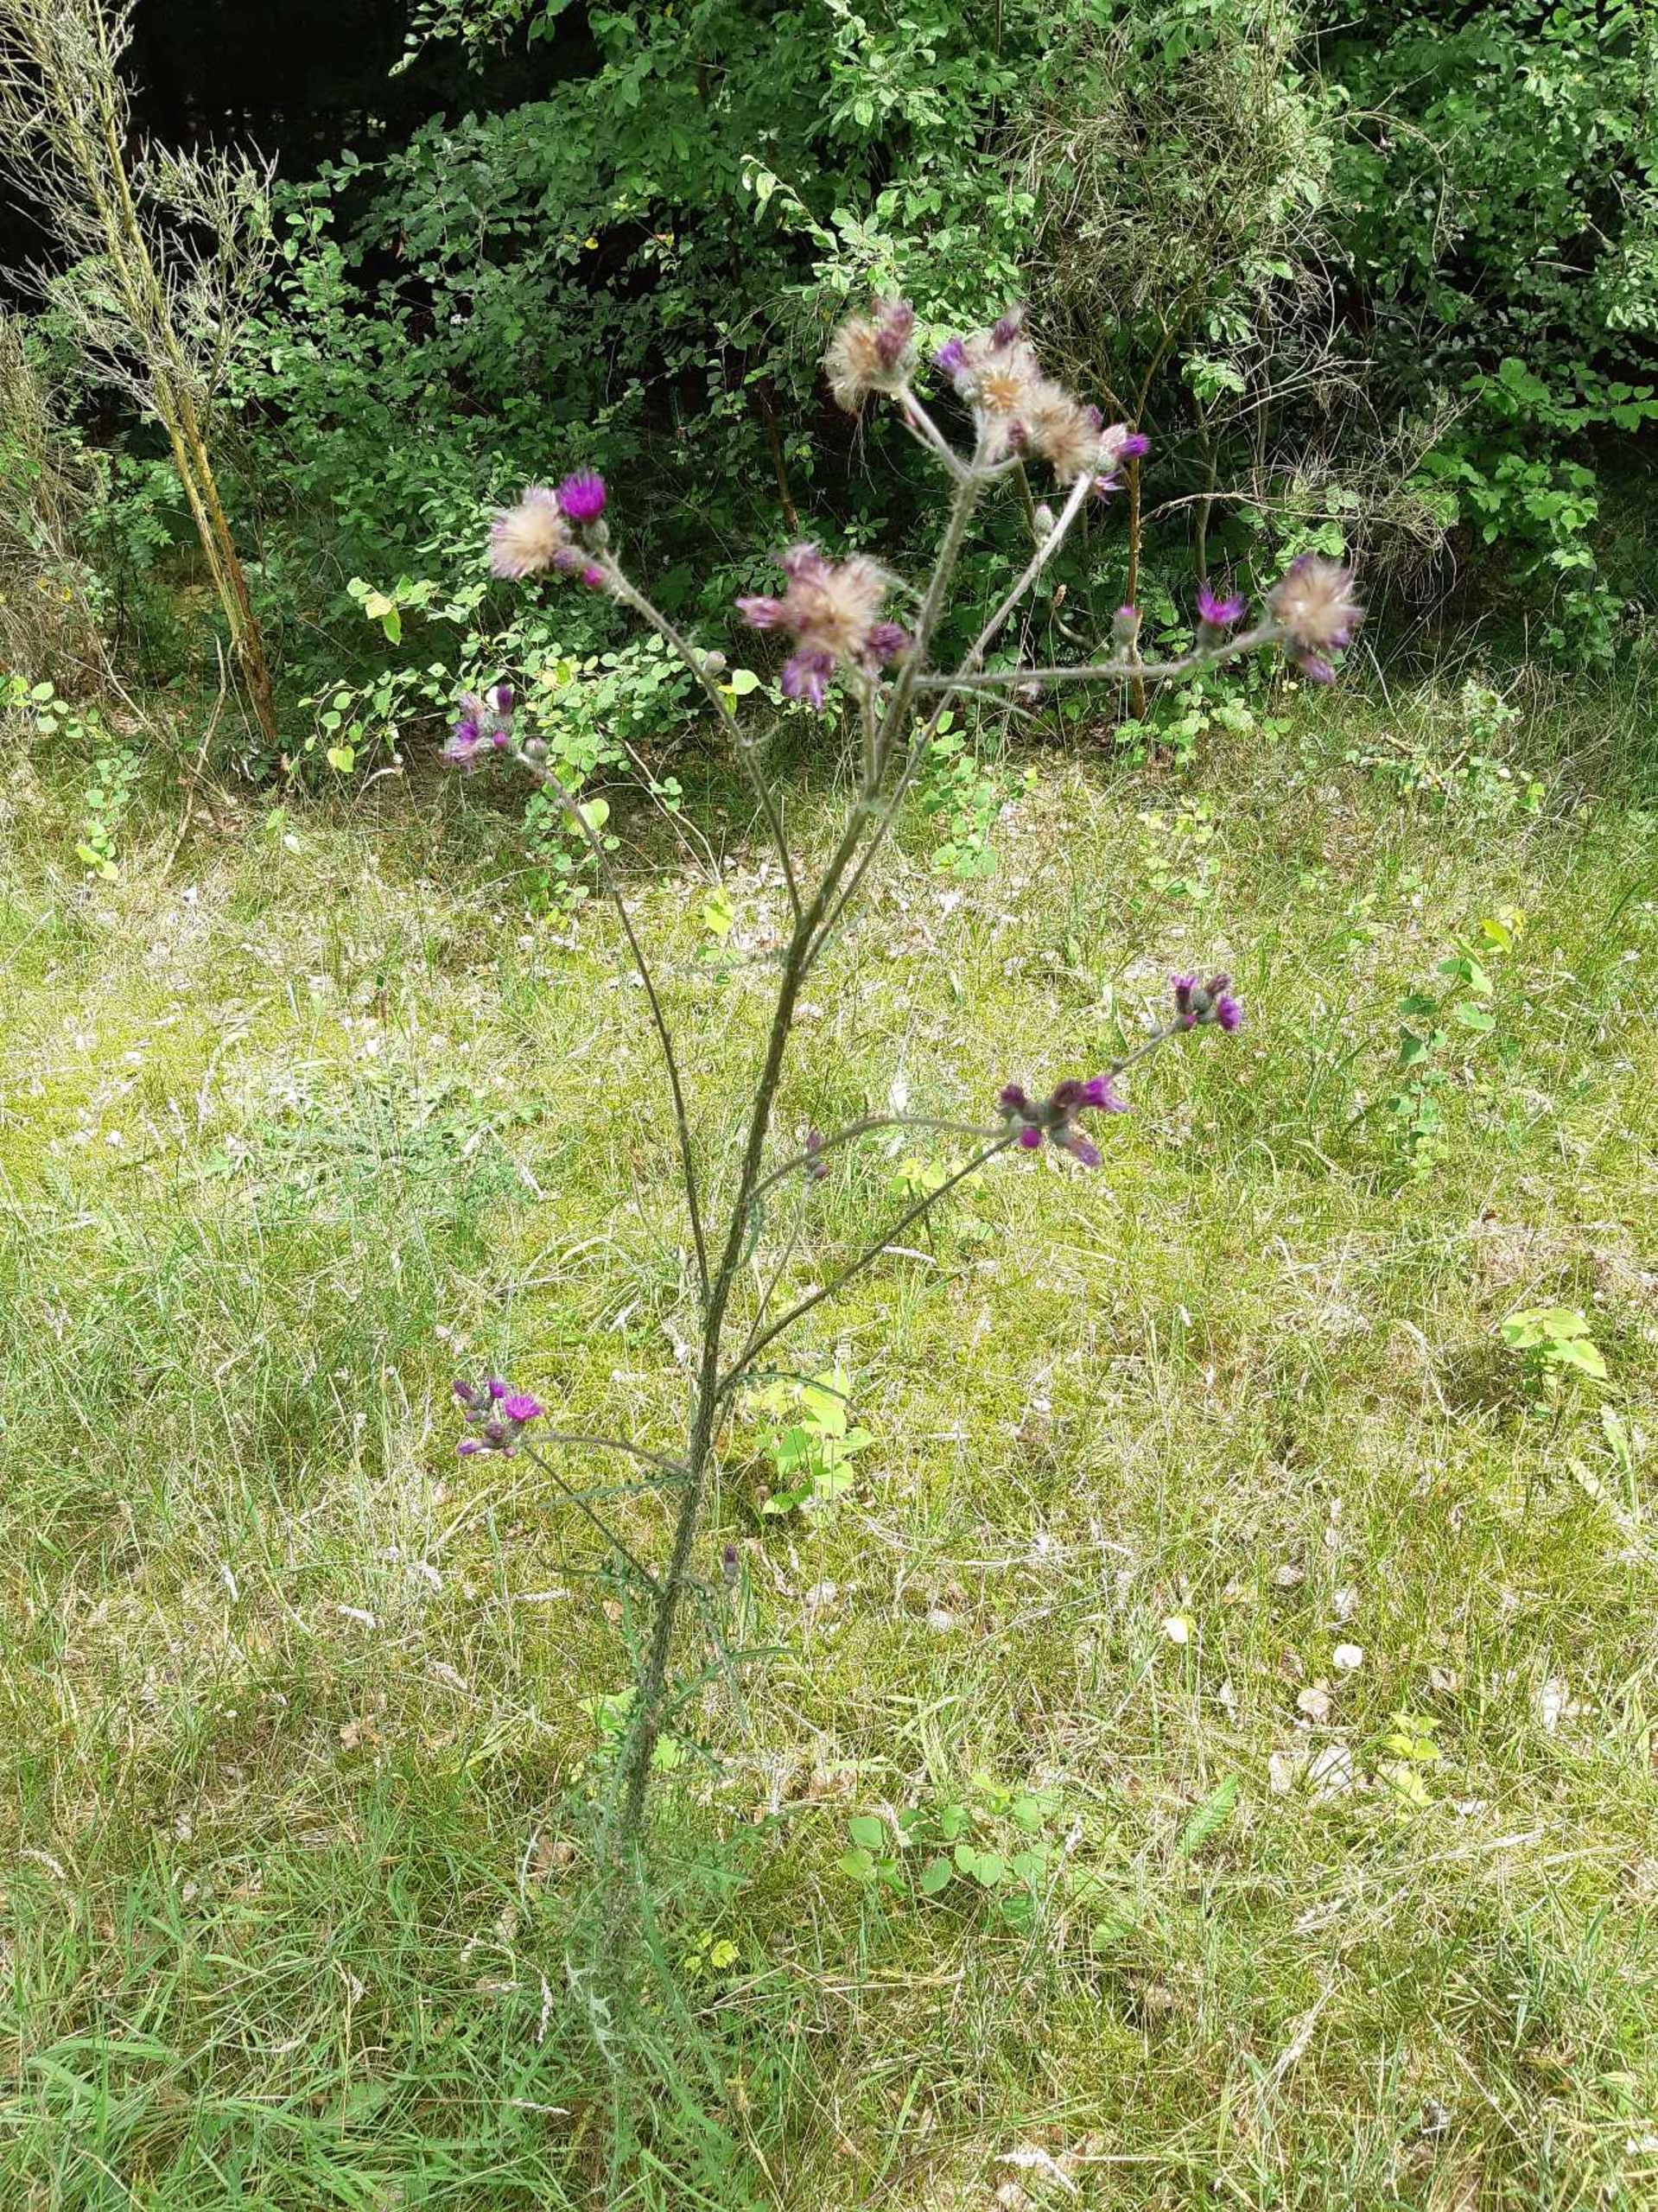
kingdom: Plantae
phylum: Tracheophyta
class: Magnoliopsida
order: Asterales
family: Asteraceae
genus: Cirsium
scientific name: Cirsium palustre
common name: Kær-tidsel
